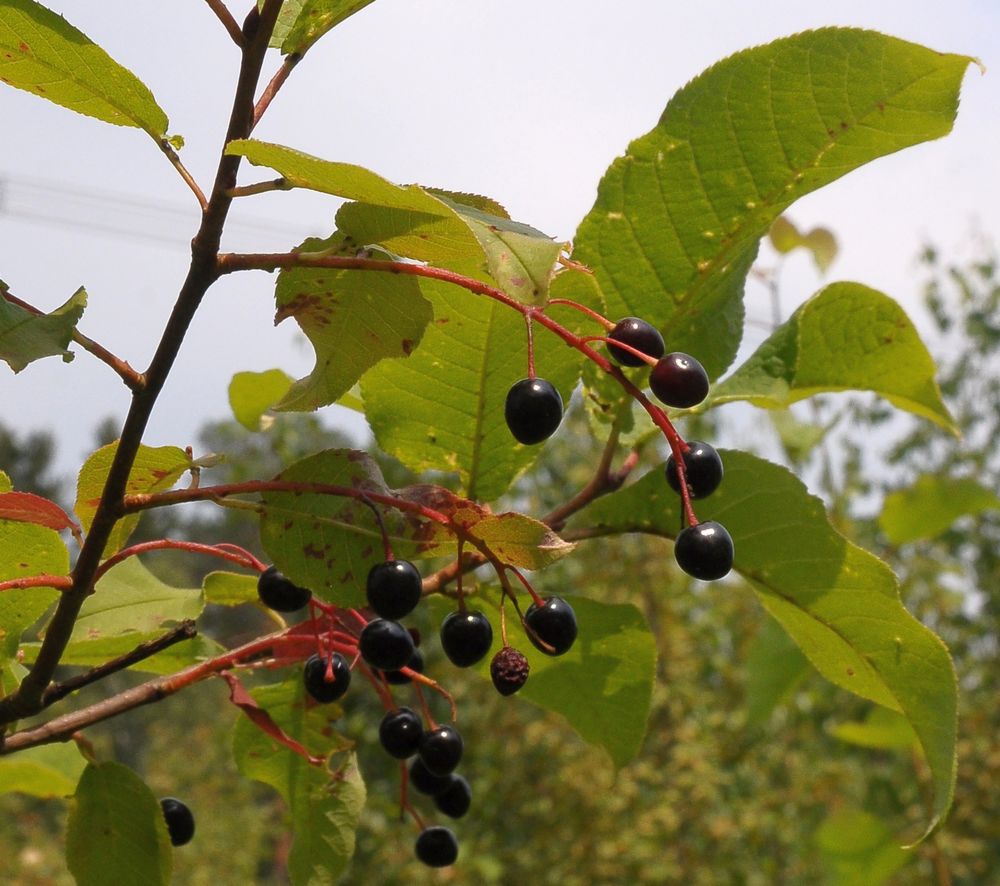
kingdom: Plantae
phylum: Tracheophyta
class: Magnoliopsida
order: Rosales
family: Rosaceae
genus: Prunus
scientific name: Prunus padus
